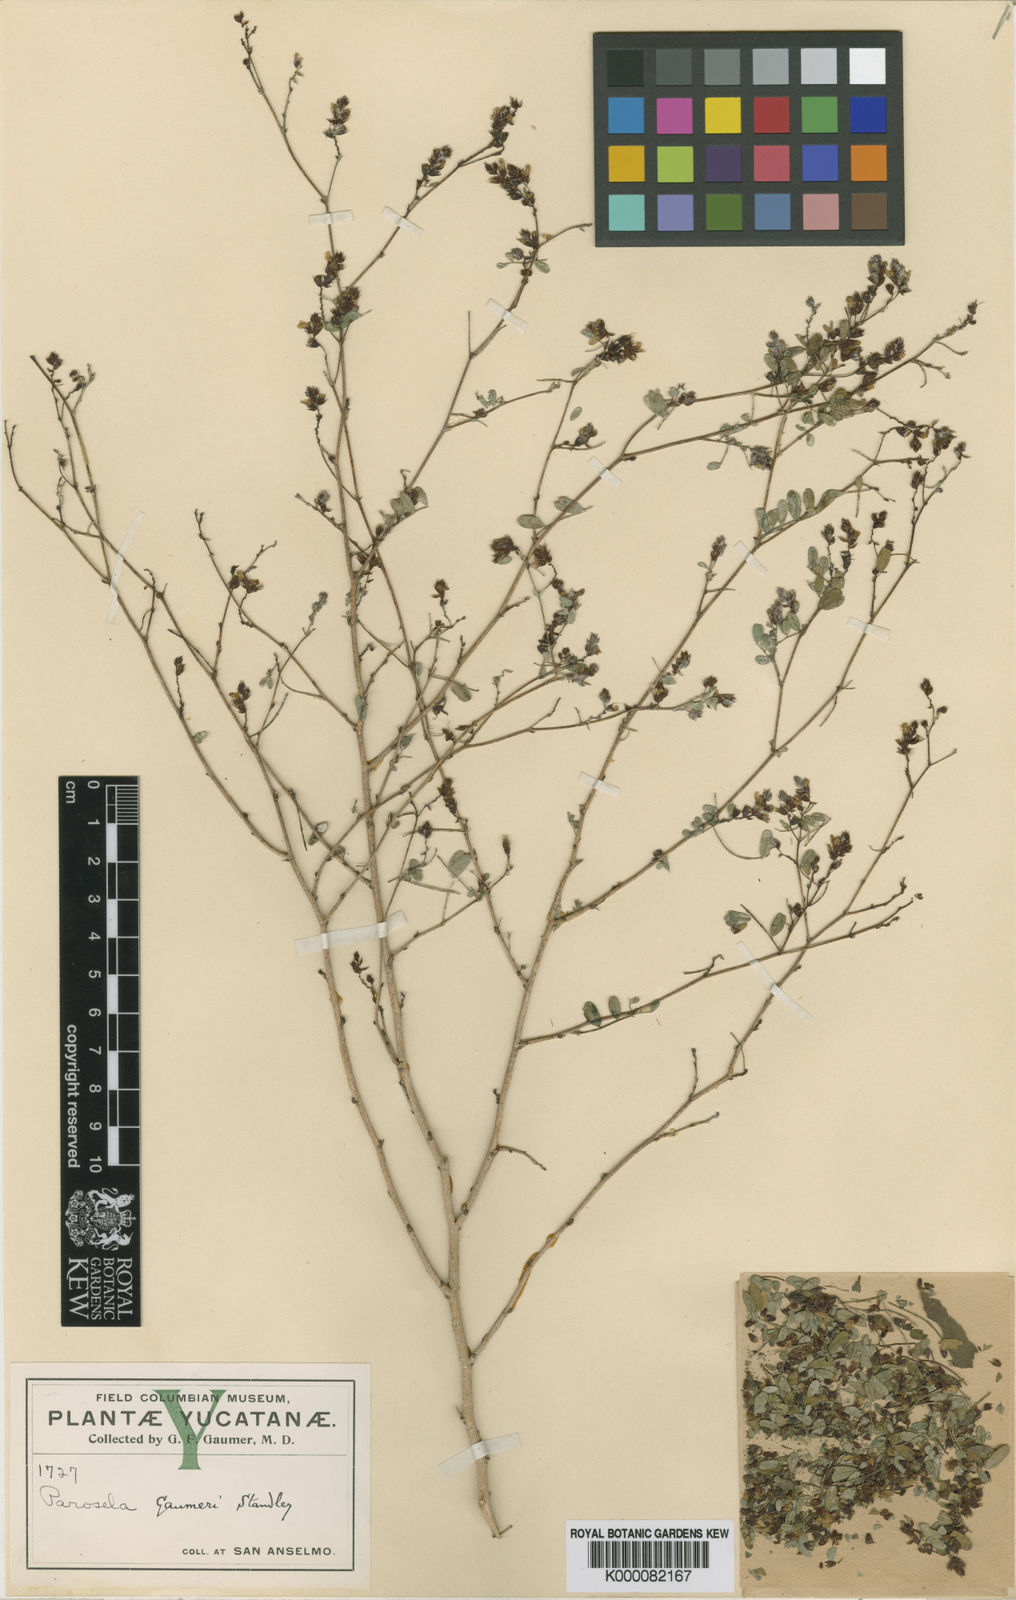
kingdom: Plantae
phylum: Tracheophyta
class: Magnoliopsida
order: Fabales
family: Fabaceae
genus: Dalea
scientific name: Dalea scandens
